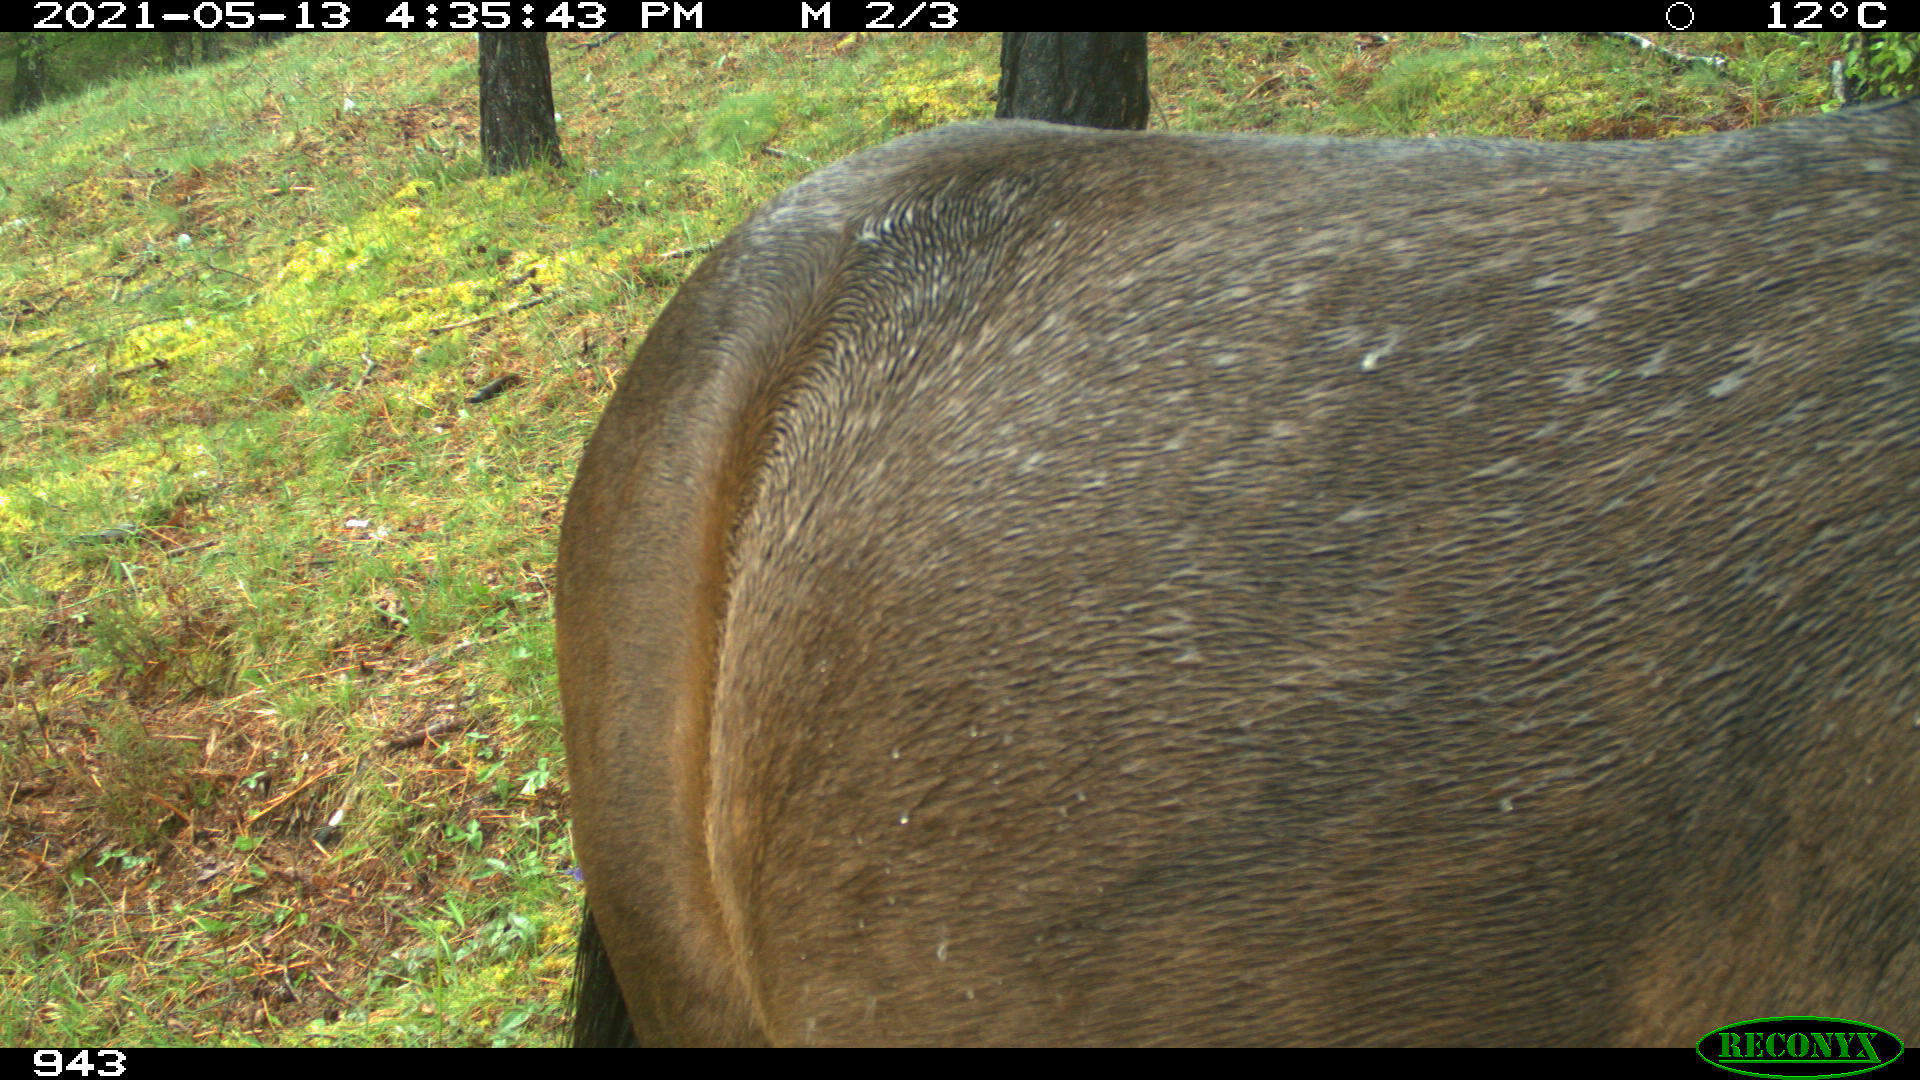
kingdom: Animalia
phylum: Chordata
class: Mammalia
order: Perissodactyla
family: Equidae
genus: Equus
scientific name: Equus caballus
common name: Horse
